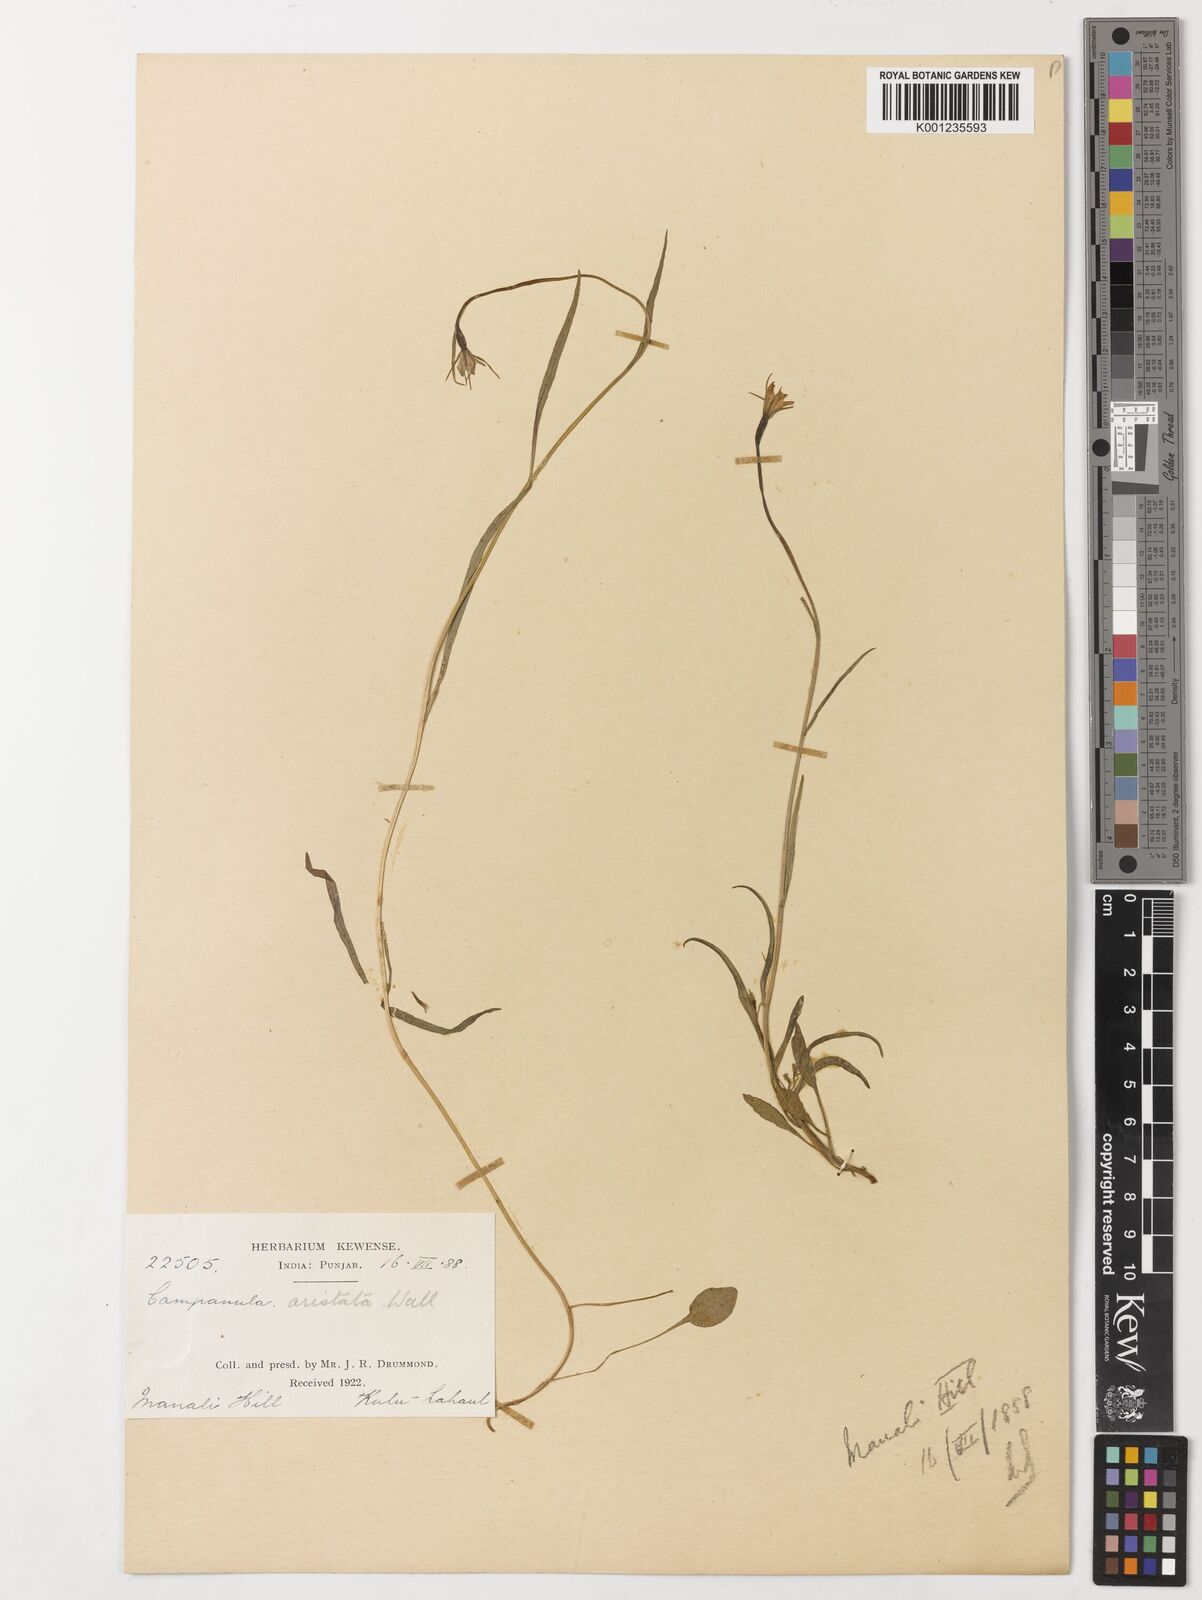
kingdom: Plantae
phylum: Tracheophyta
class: Magnoliopsida
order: Asterales
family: Campanulaceae
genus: Campanula
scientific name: Campanula aristata
